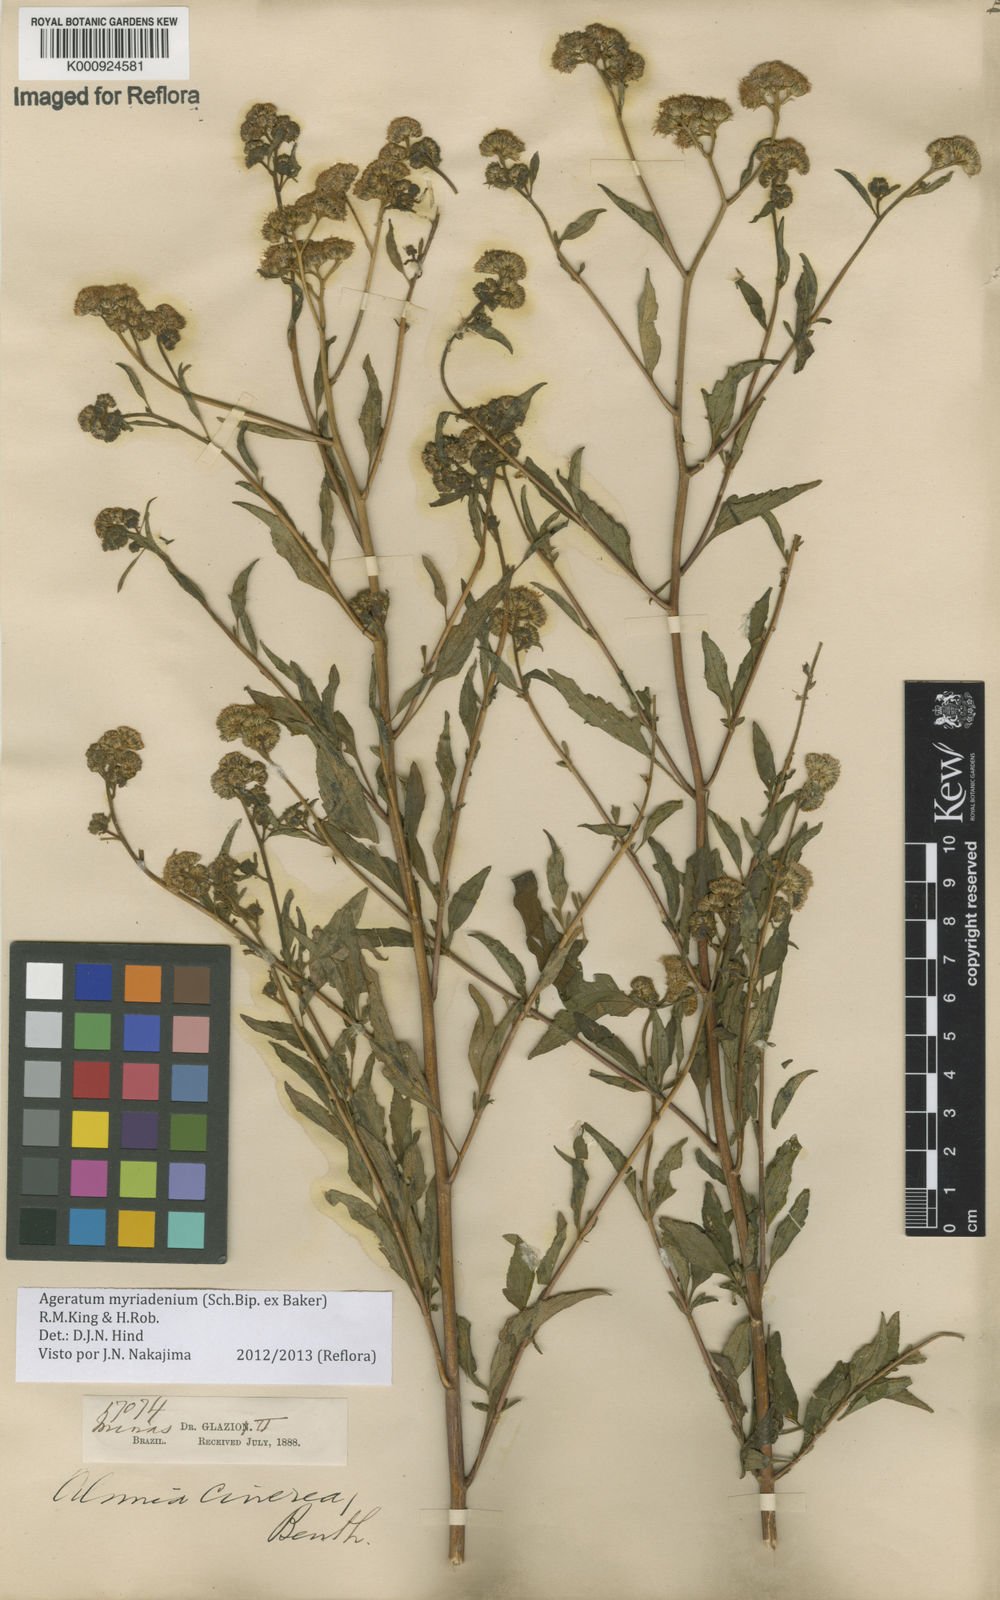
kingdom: Plantae
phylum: Tracheophyta
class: Magnoliopsida
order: Asterales
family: Asteraceae
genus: Ageratum
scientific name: Ageratum myriadenium
